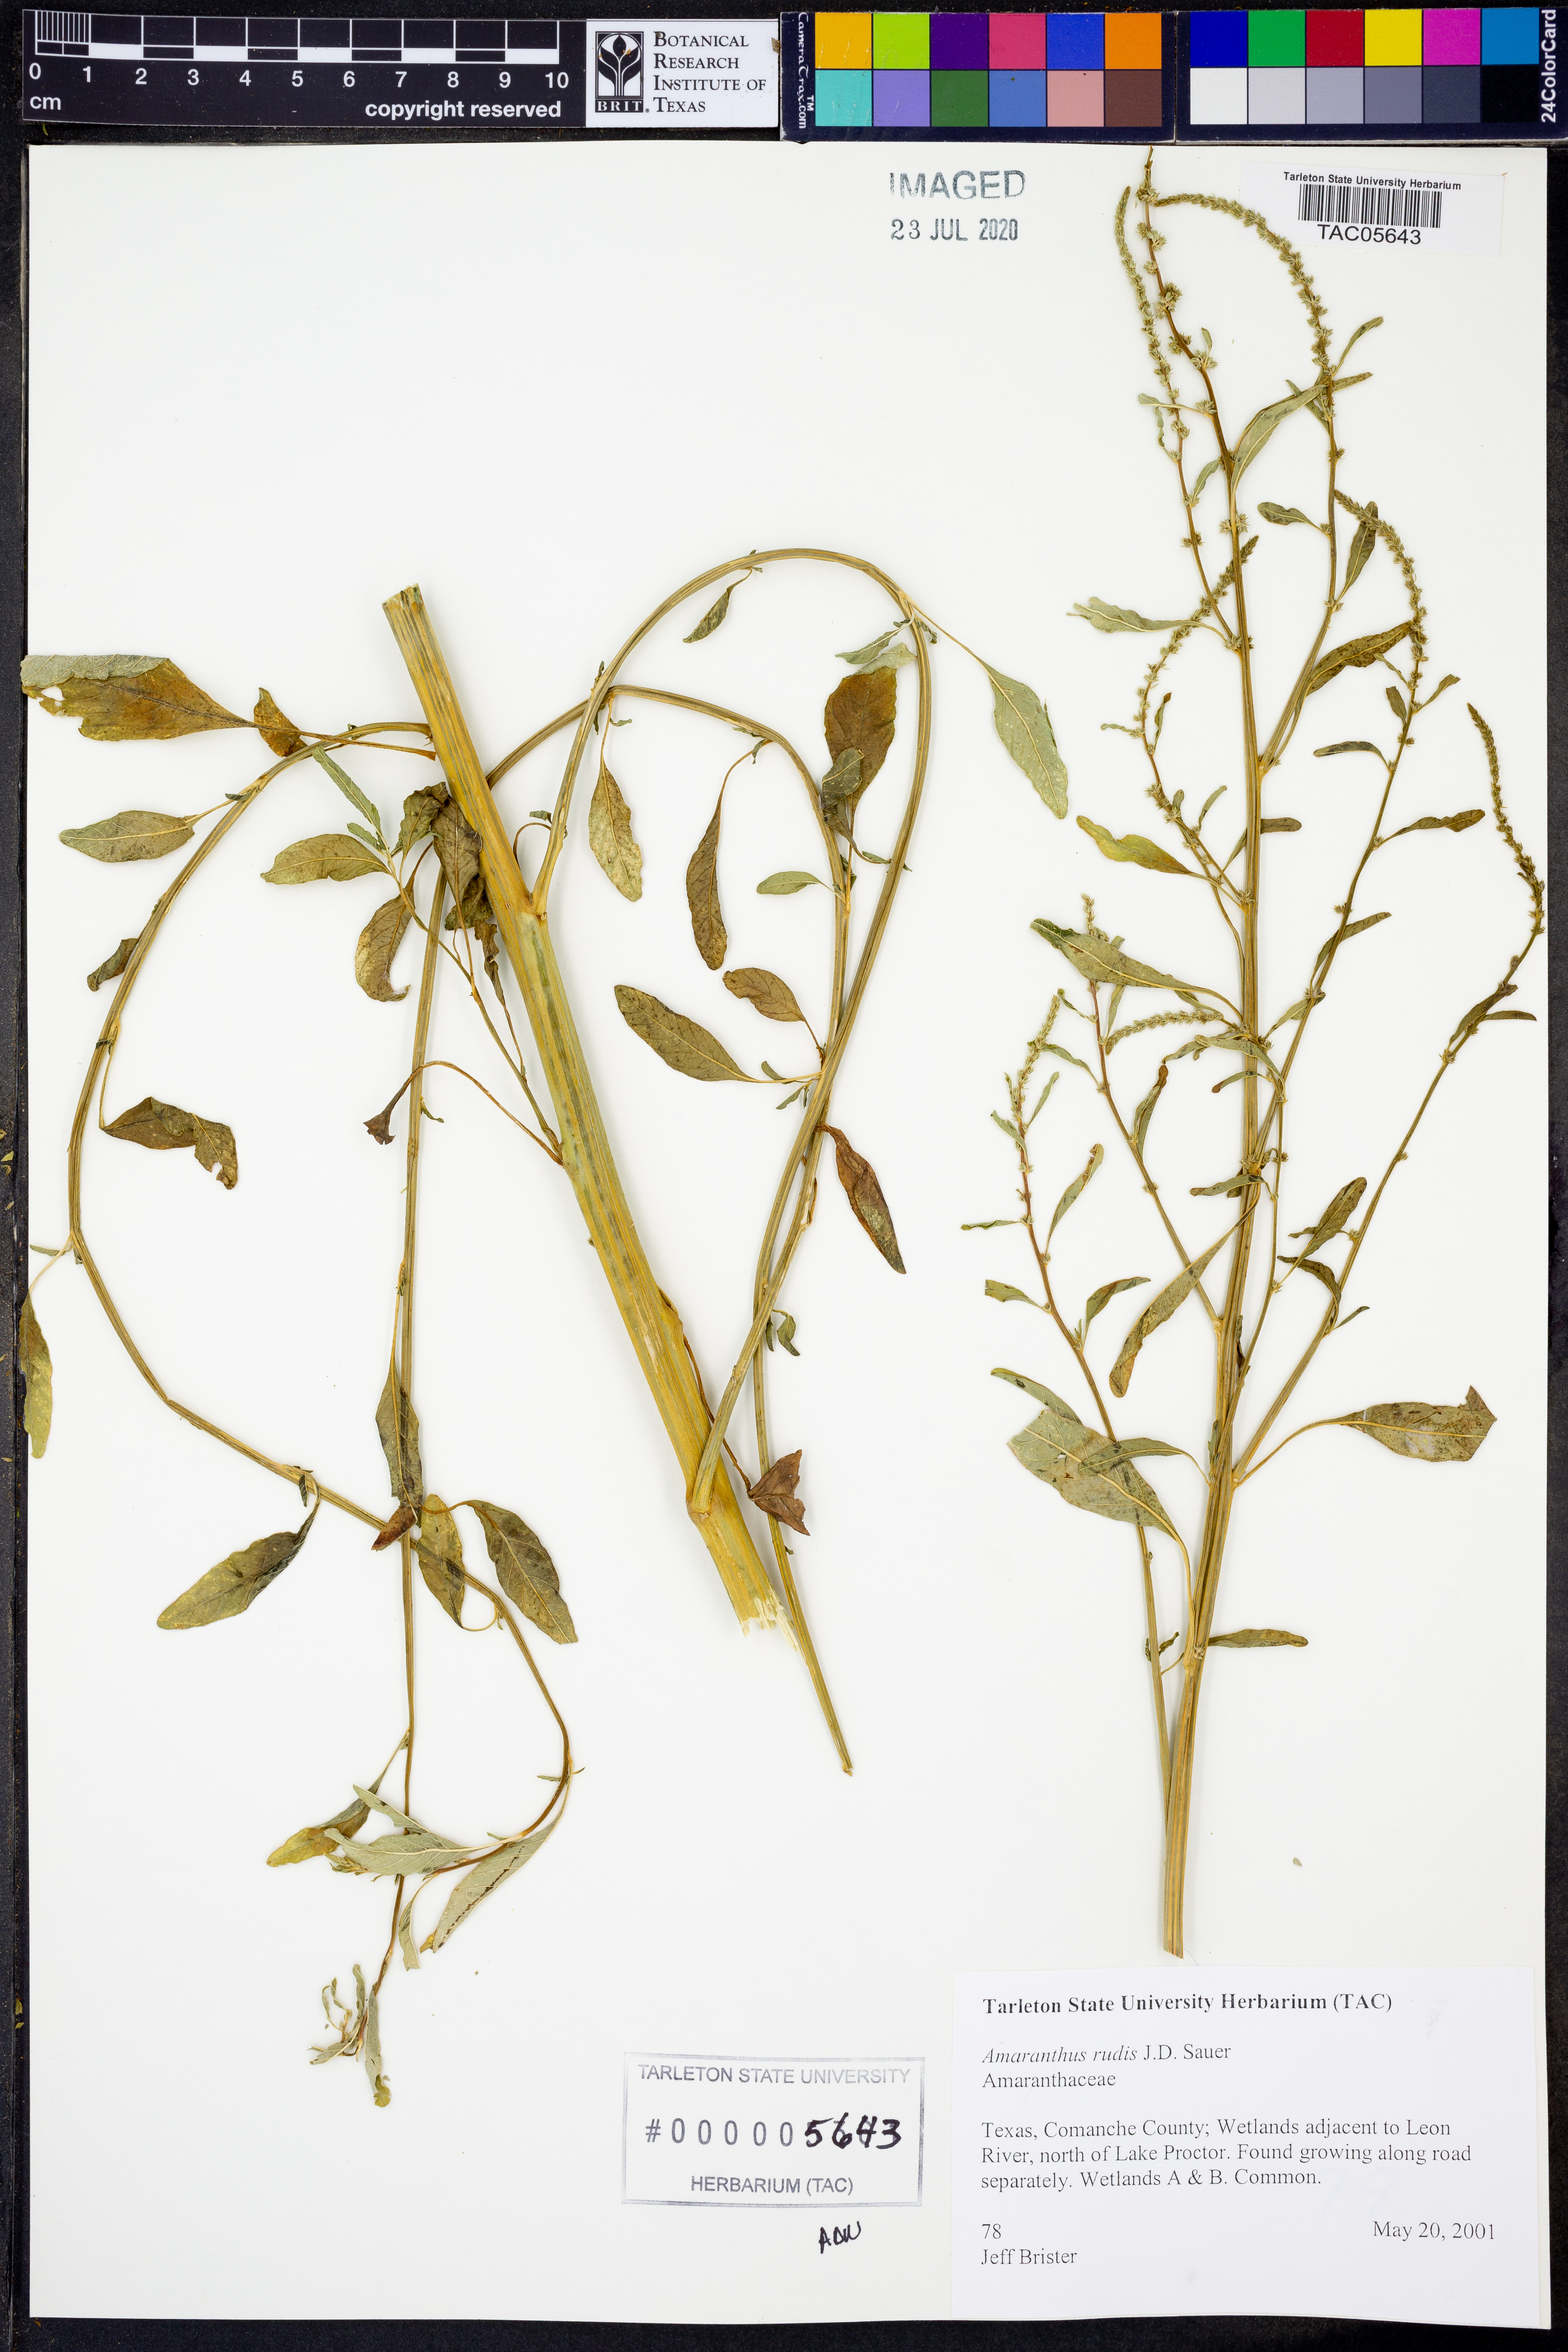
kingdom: Plantae
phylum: Tracheophyta
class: Magnoliopsida
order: Caryophyllales
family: Amaranthaceae
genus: Amaranthus
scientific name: Amaranthus tuberculatus
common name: Rough-fruit amaranth
